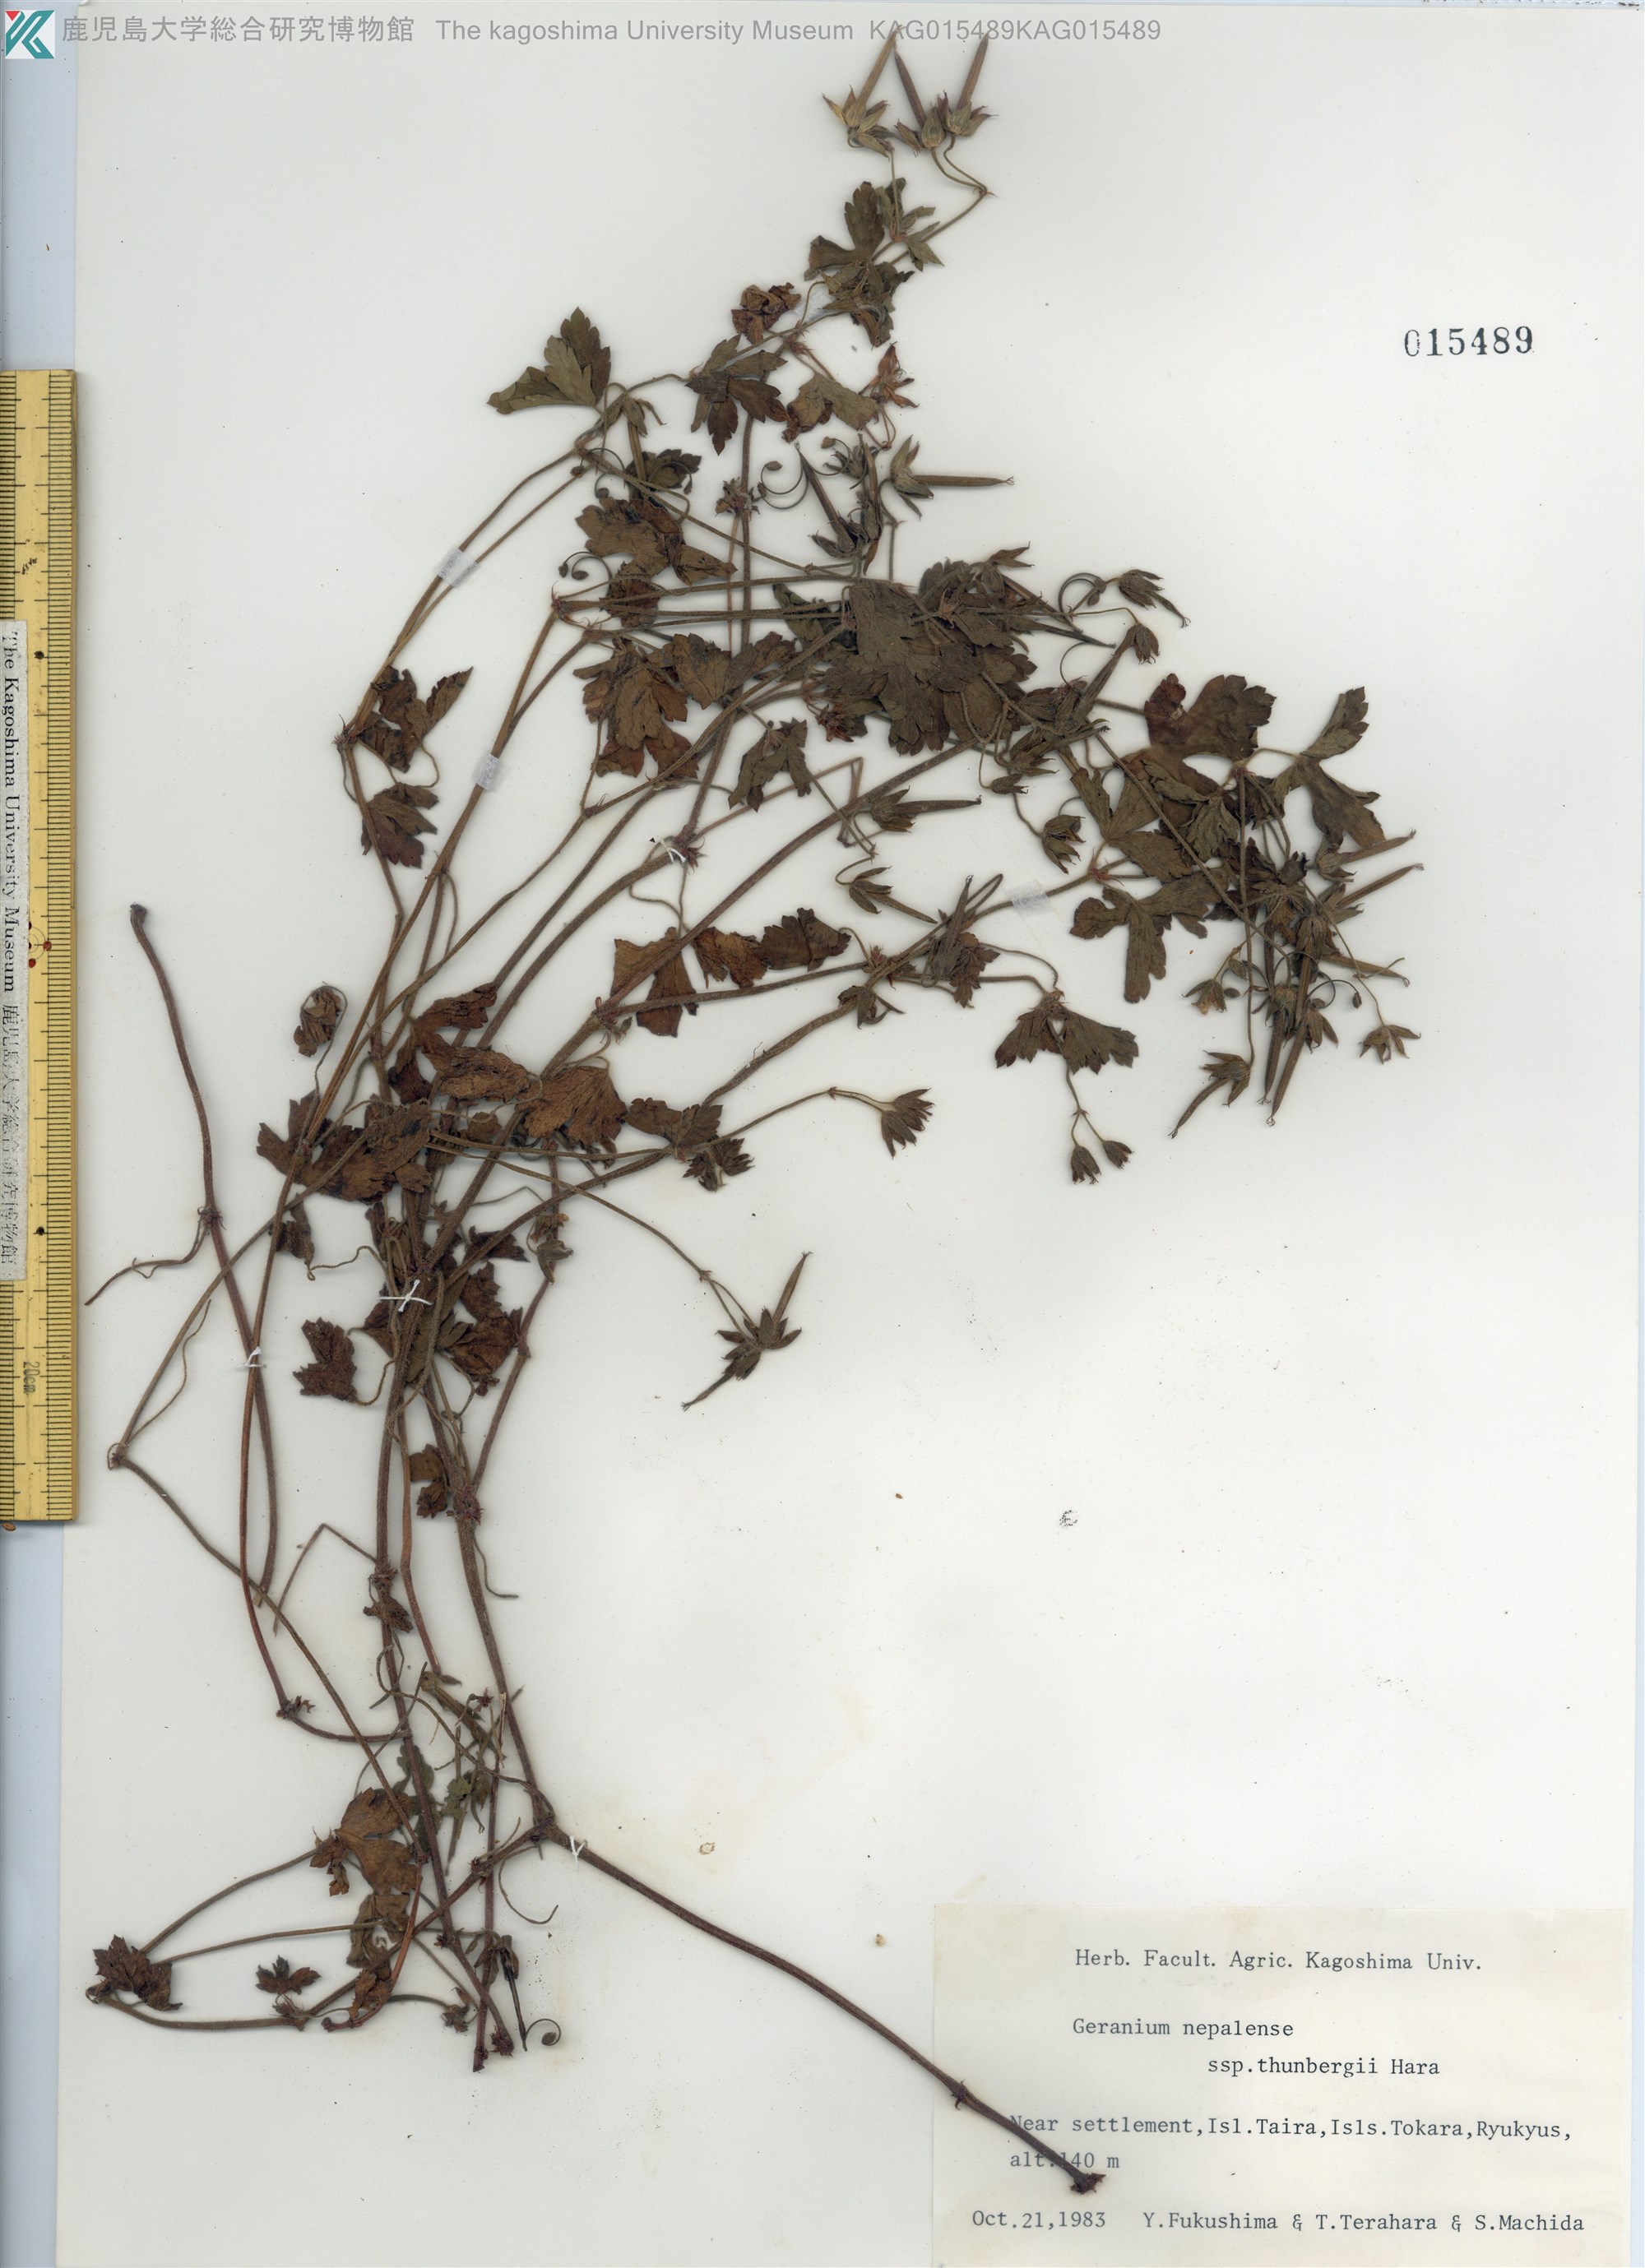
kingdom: Plantae
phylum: Tracheophyta
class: Magnoliopsida
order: Geraniales
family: Geraniaceae
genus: Geranium
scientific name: Geranium thunbergii
